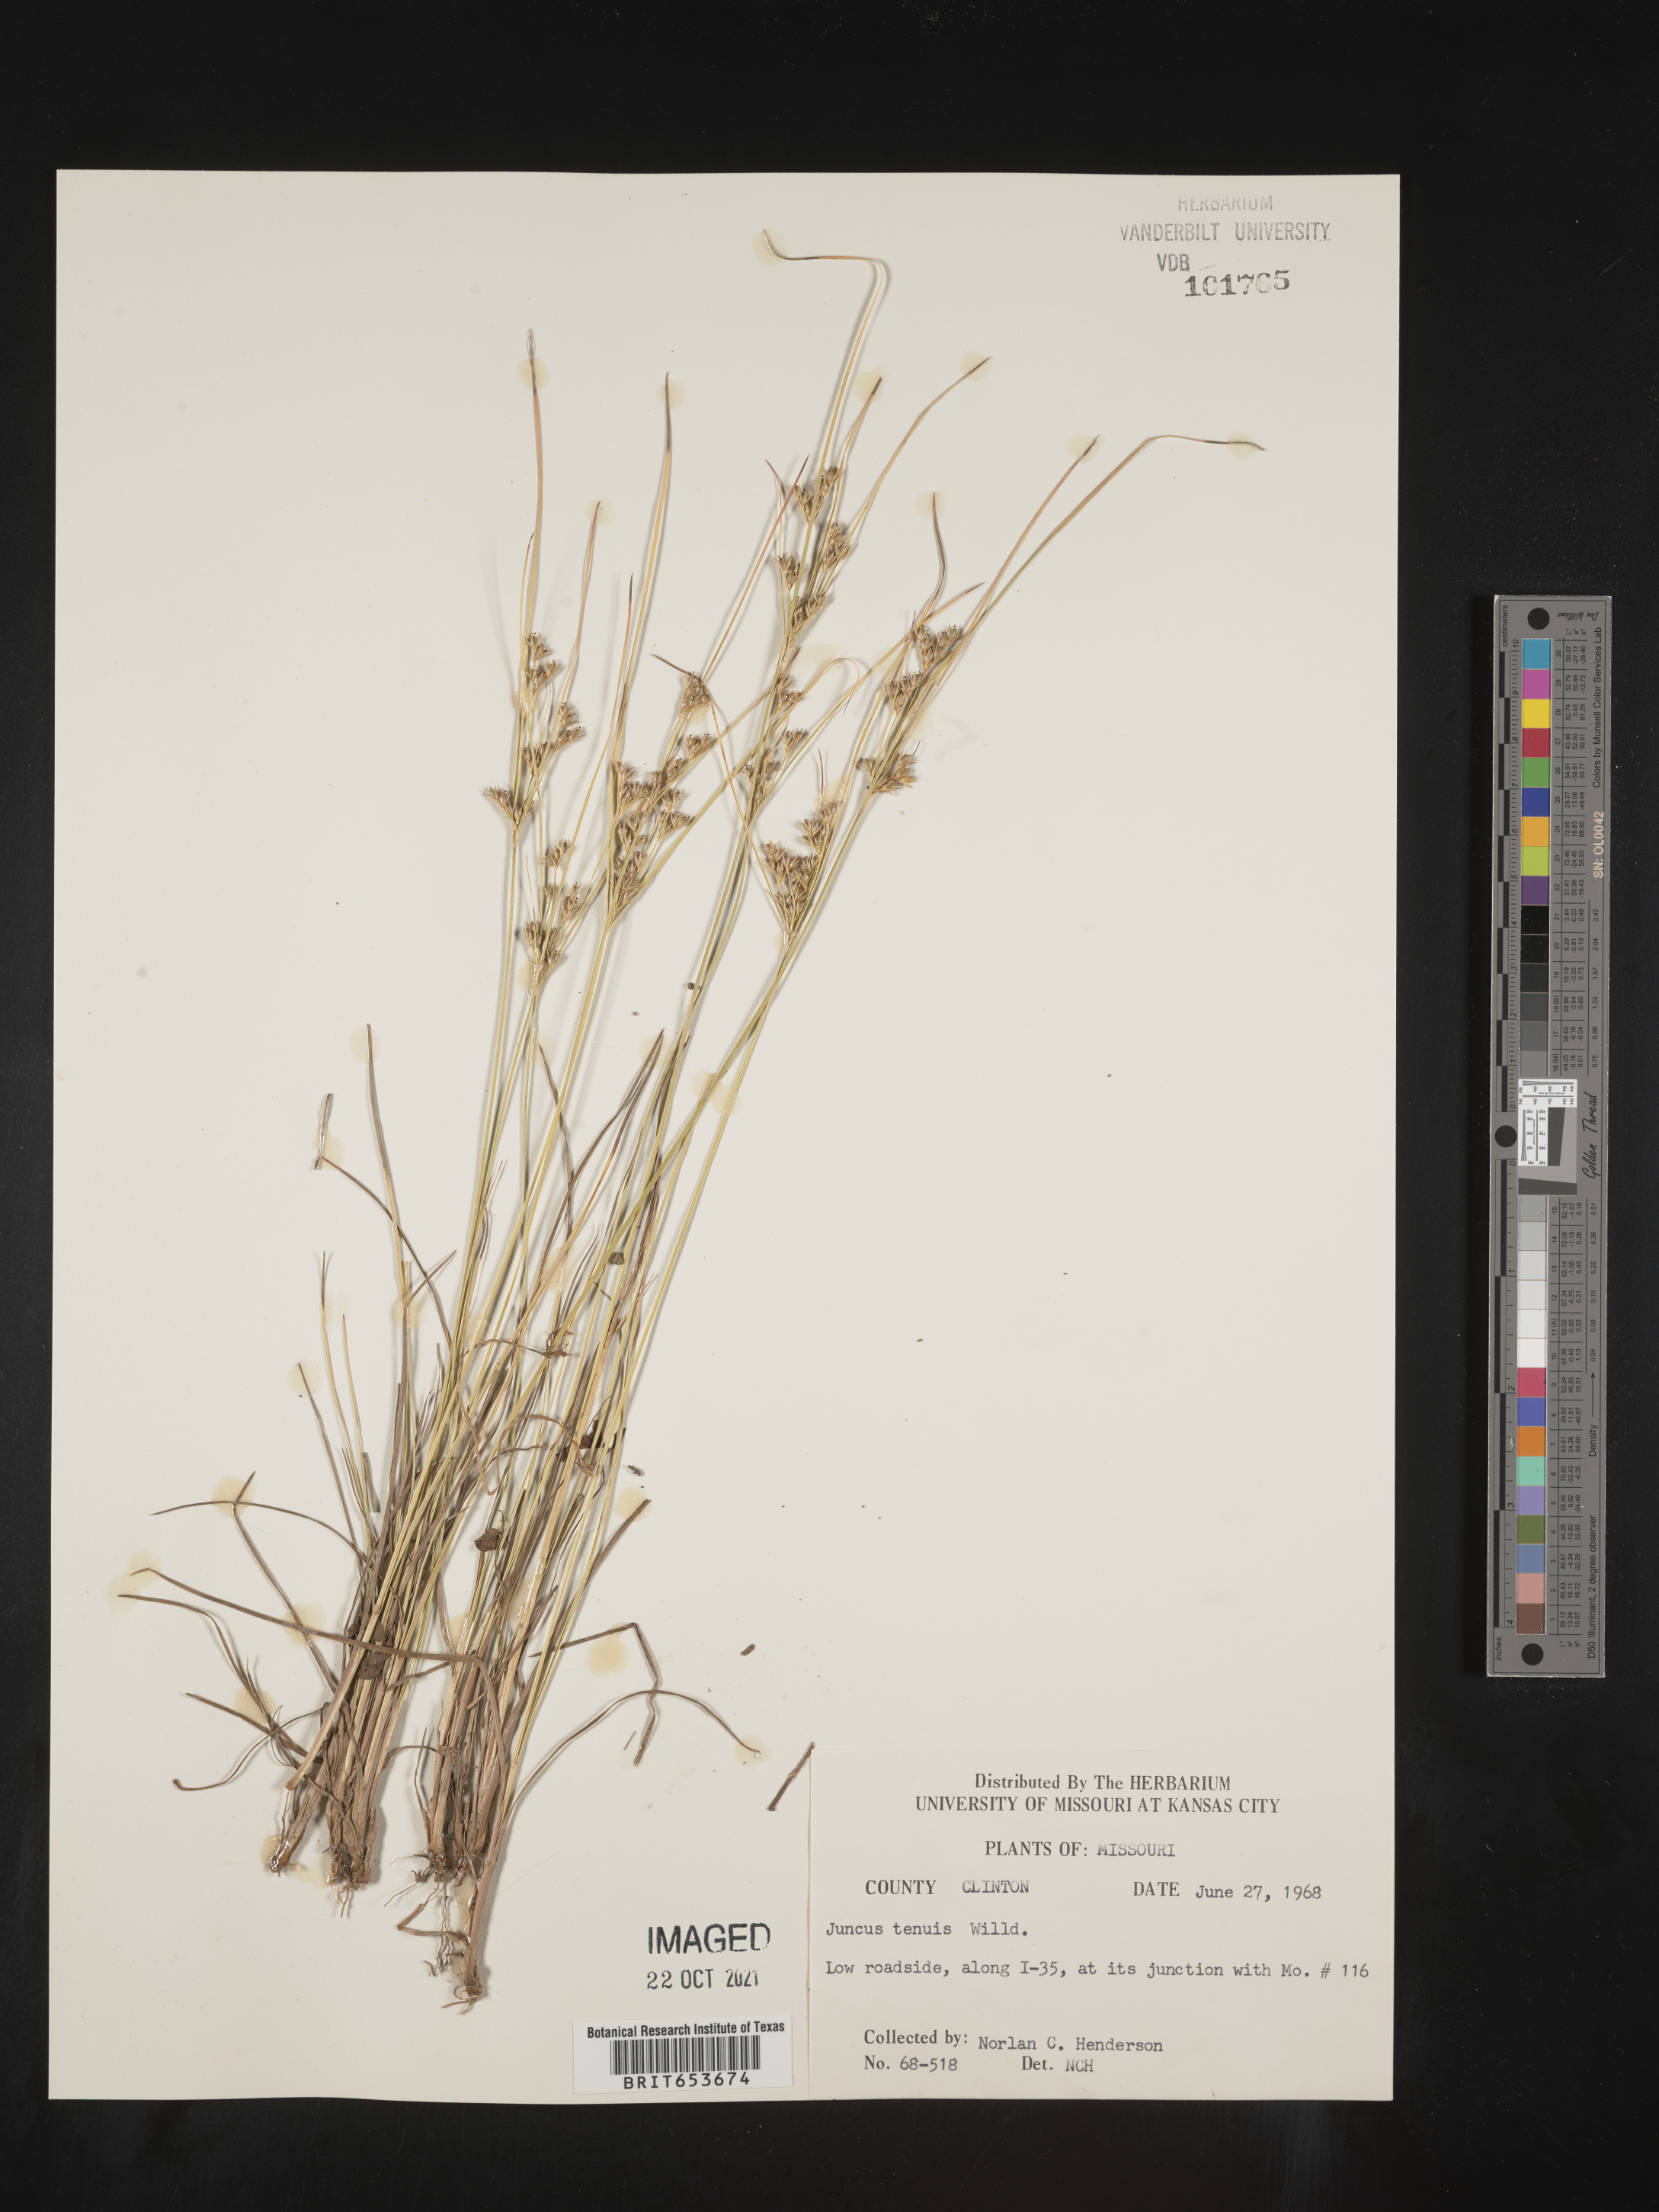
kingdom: Plantae
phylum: Tracheophyta
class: Liliopsida
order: Poales
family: Juncaceae
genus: Juncus
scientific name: Juncus tenuis
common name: Slender rush
